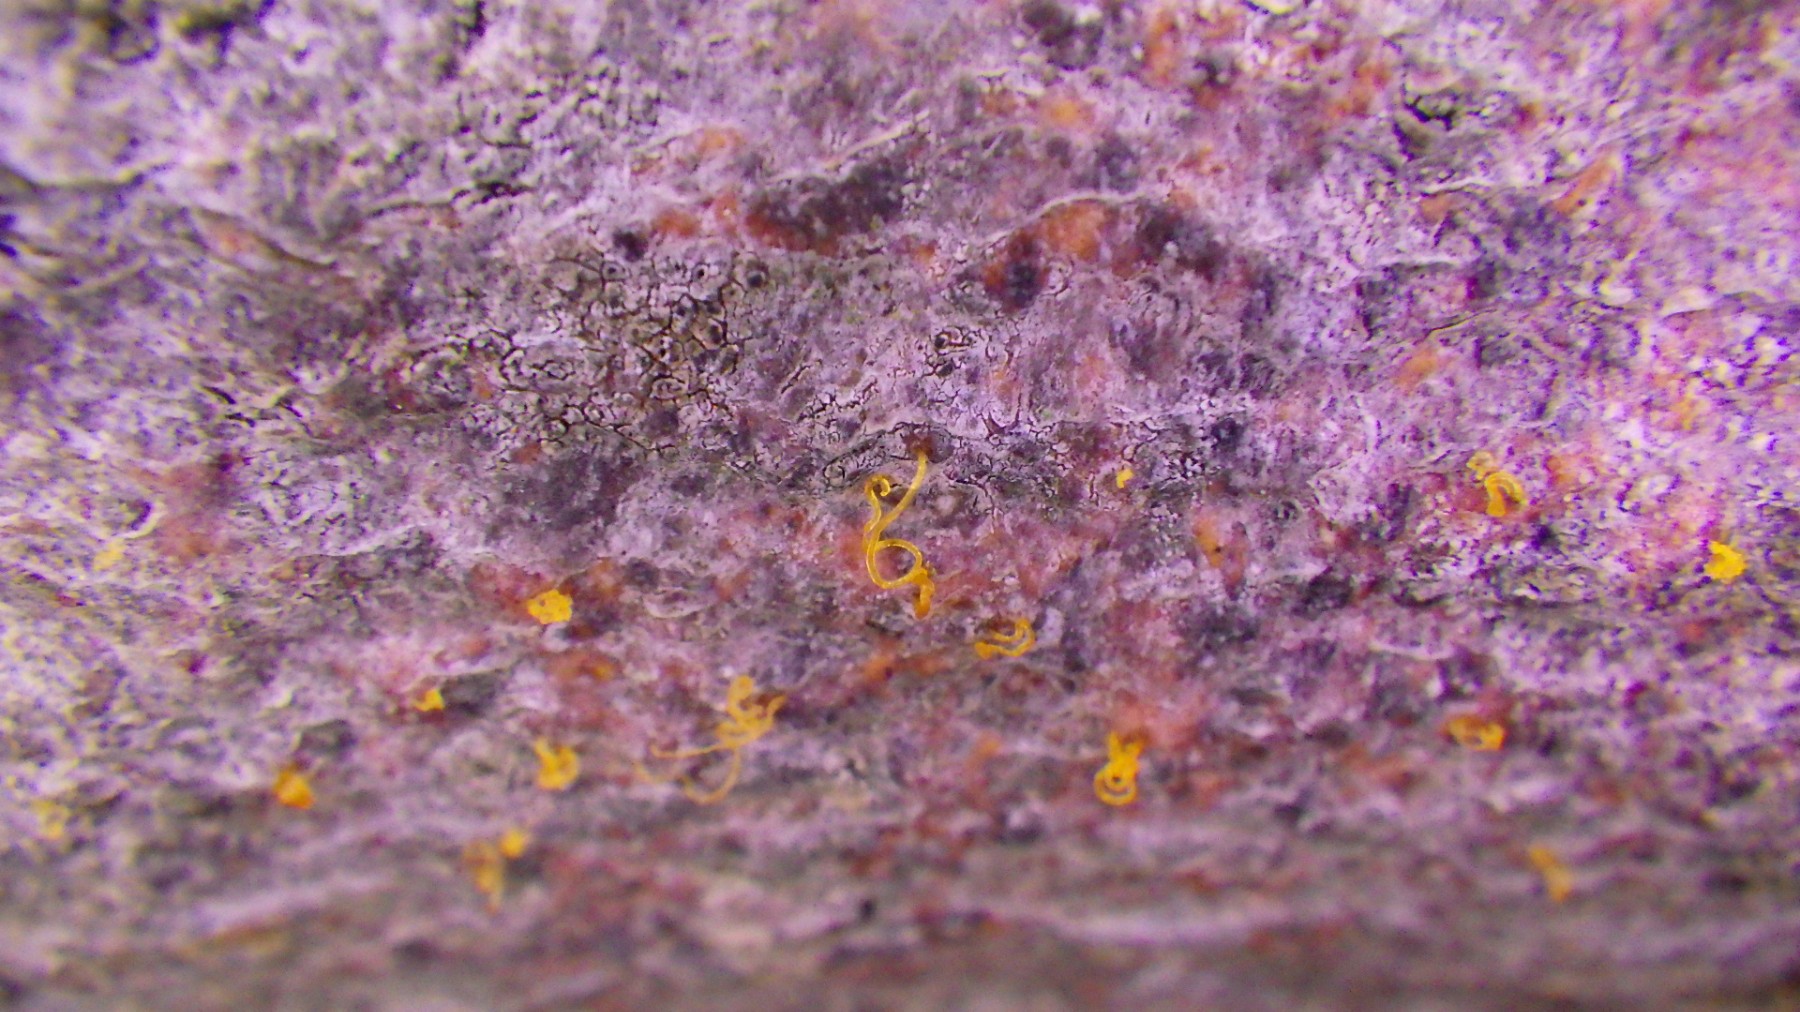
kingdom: Fungi
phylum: Ascomycota
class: Sordariomycetes
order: Xylariales
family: Diatrypaceae
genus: Eutypella
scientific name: Eutypella quaternata
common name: bøge-korsprik
